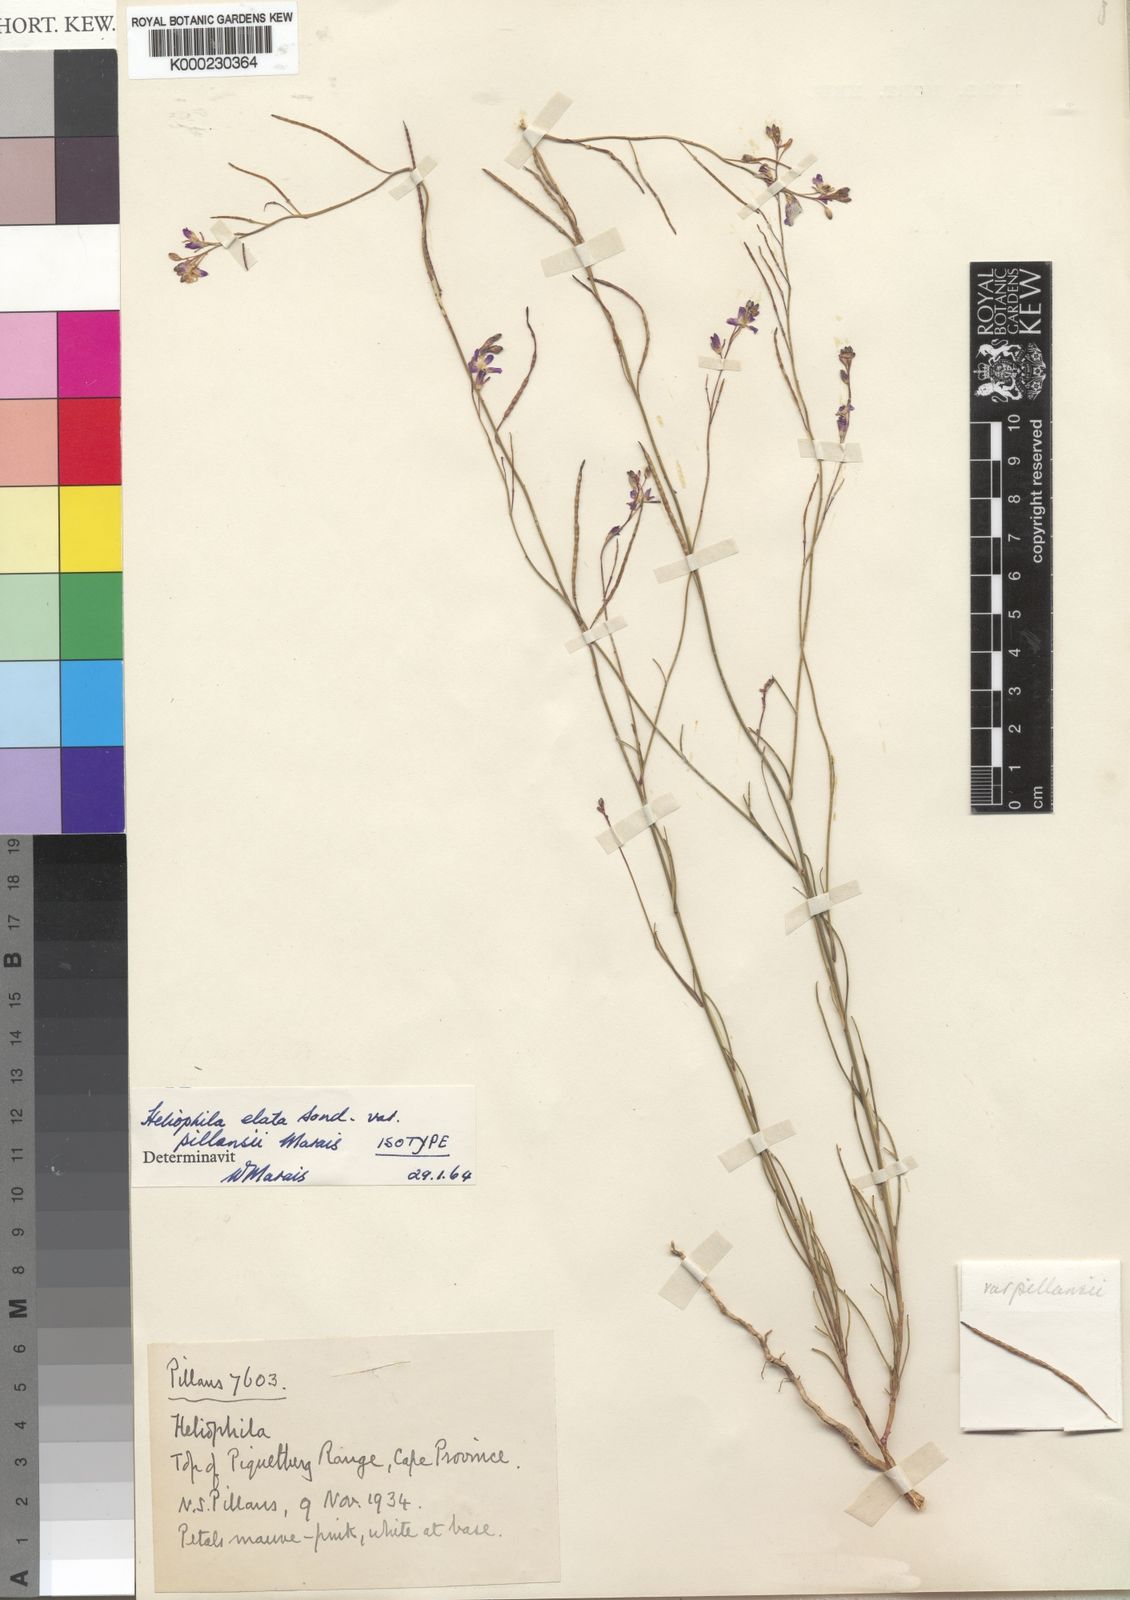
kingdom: Plantae
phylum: Tracheophyta
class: Magnoliopsida
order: Brassicales
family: Brassicaceae
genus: Heliophila
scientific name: Heliophila elata
